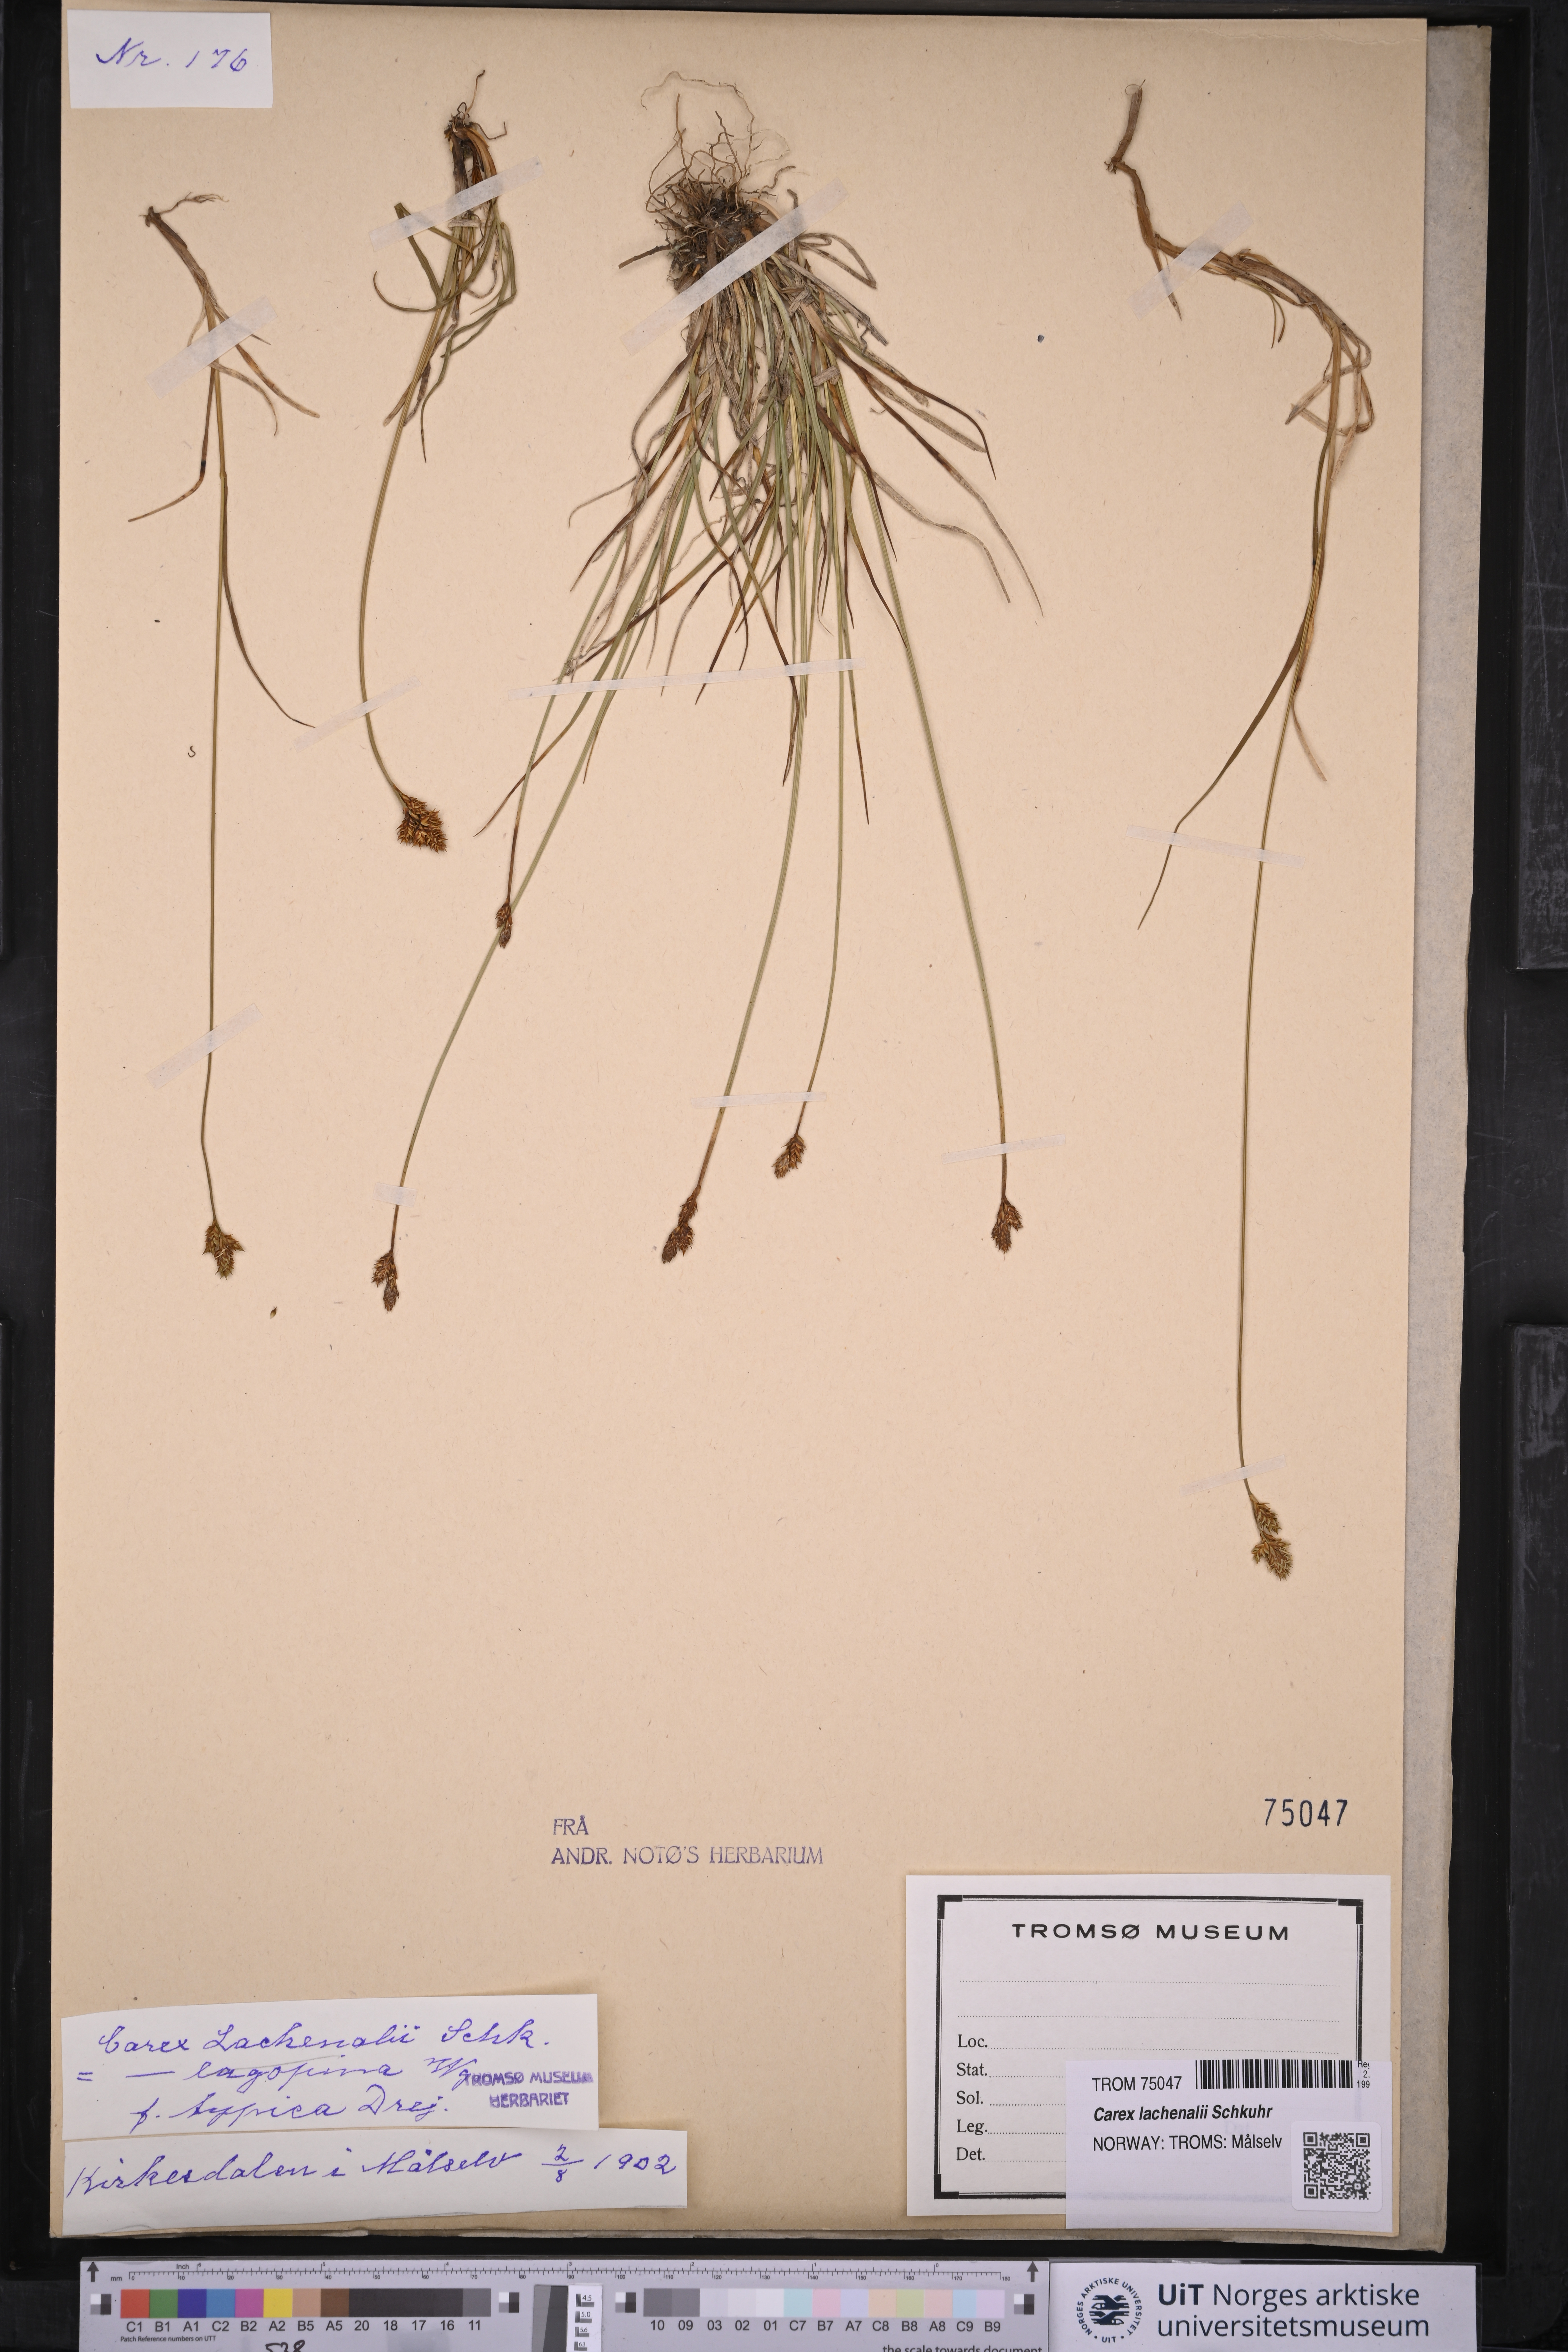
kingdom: Plantae
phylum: Tracheophyta
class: Liliopsida
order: Poales
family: Cyperaceae
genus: Carex
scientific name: Carex lachenalii
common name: Hare's-foot sedge
